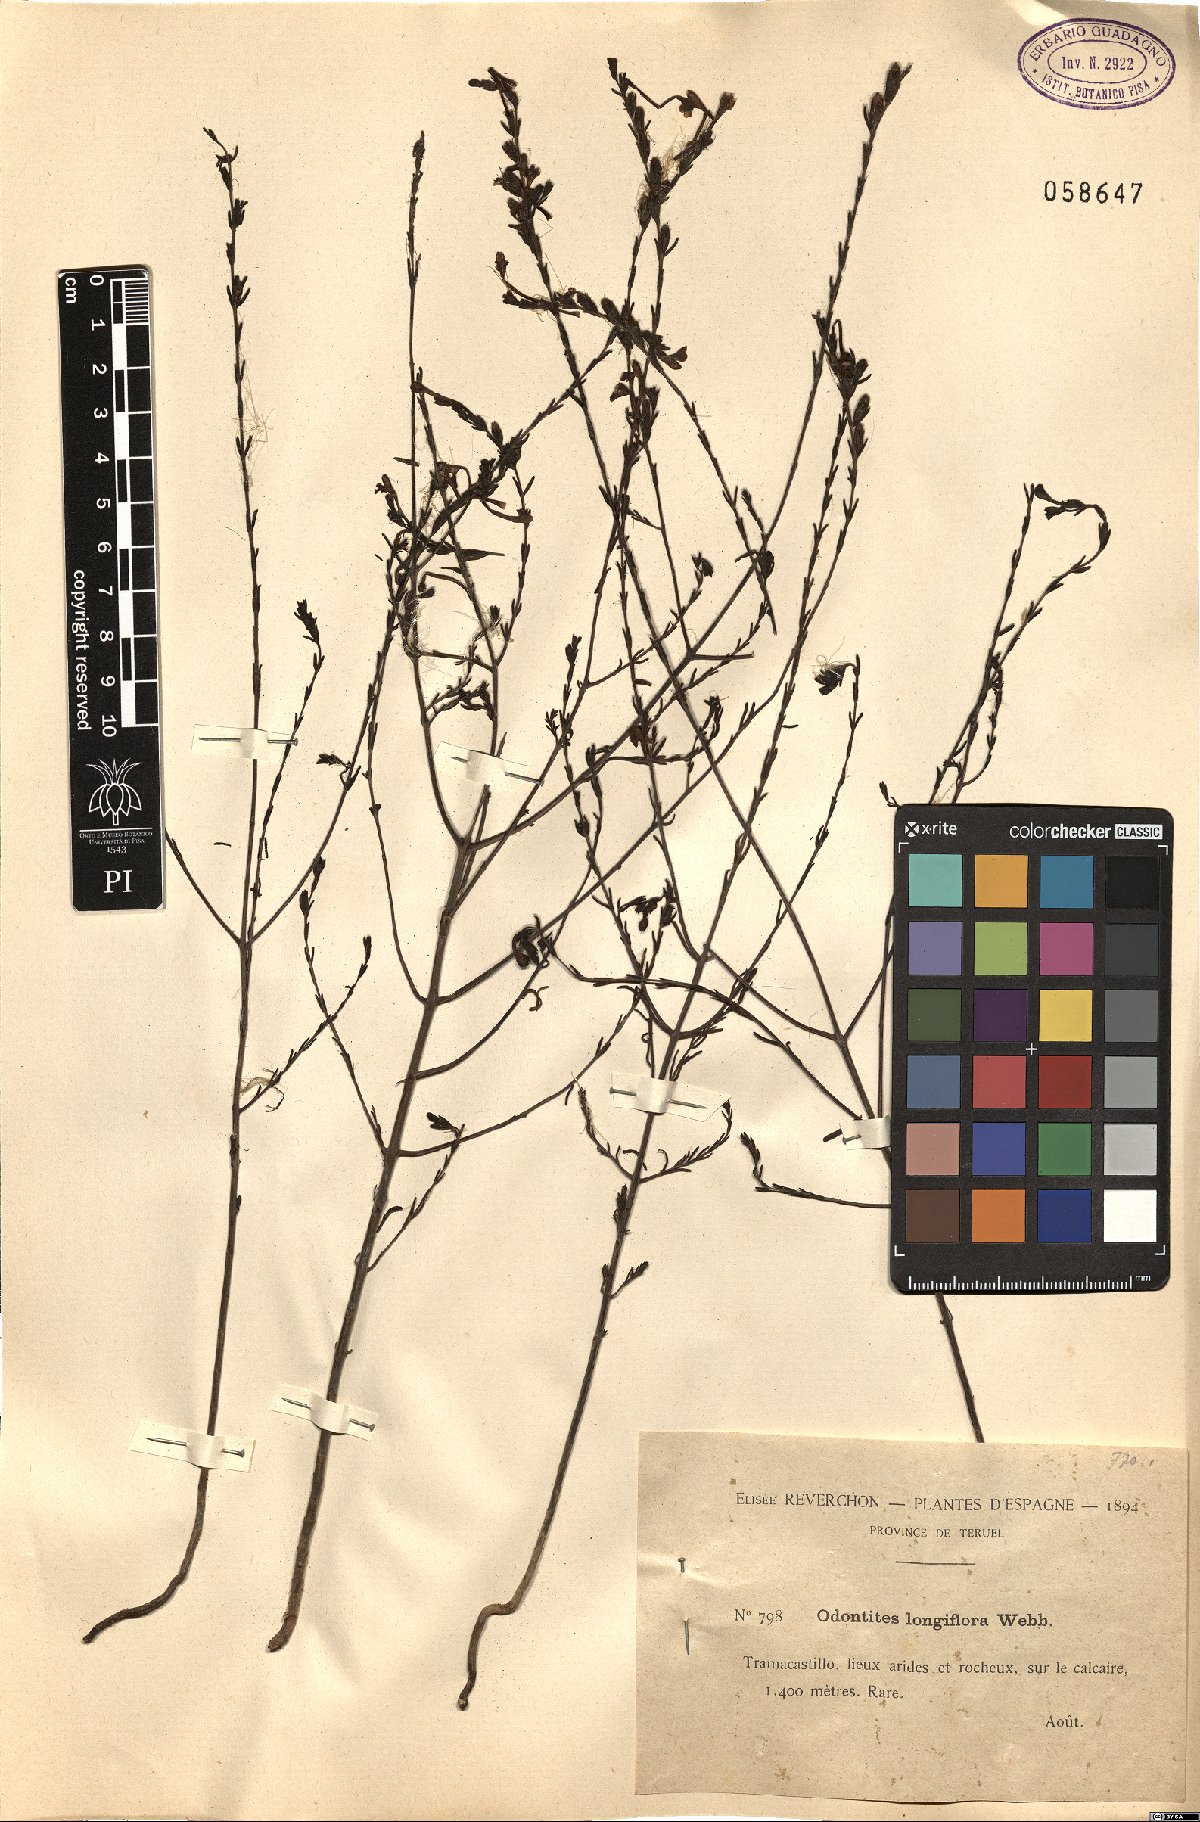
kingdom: Plantae
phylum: Tracheophyta
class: Magnoliopsida
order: Lamiales
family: Orobanchaceae
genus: Odontites
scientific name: Odontites longiflorus
